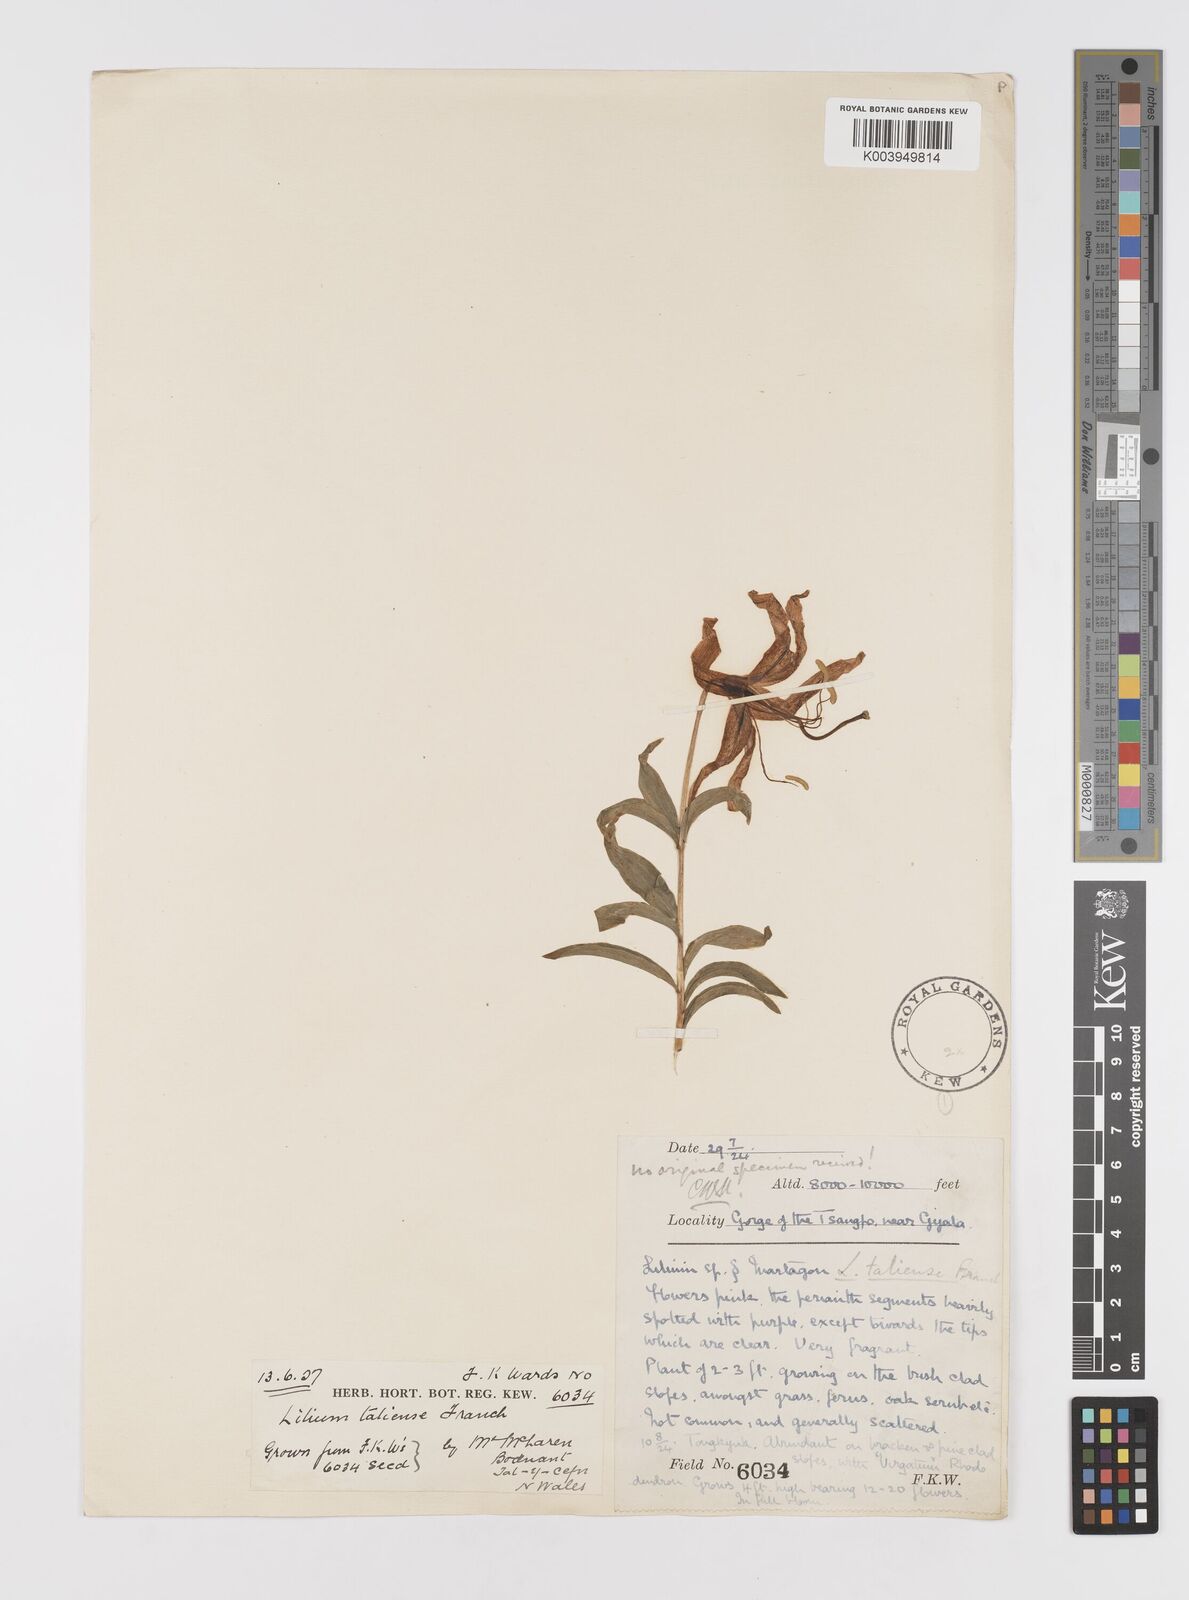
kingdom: Plantae
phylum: Tracheophyta
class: Liliopsida
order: Liliales
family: Liliaceae
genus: Lilium
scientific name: Lilium taliense
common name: Tali lily
